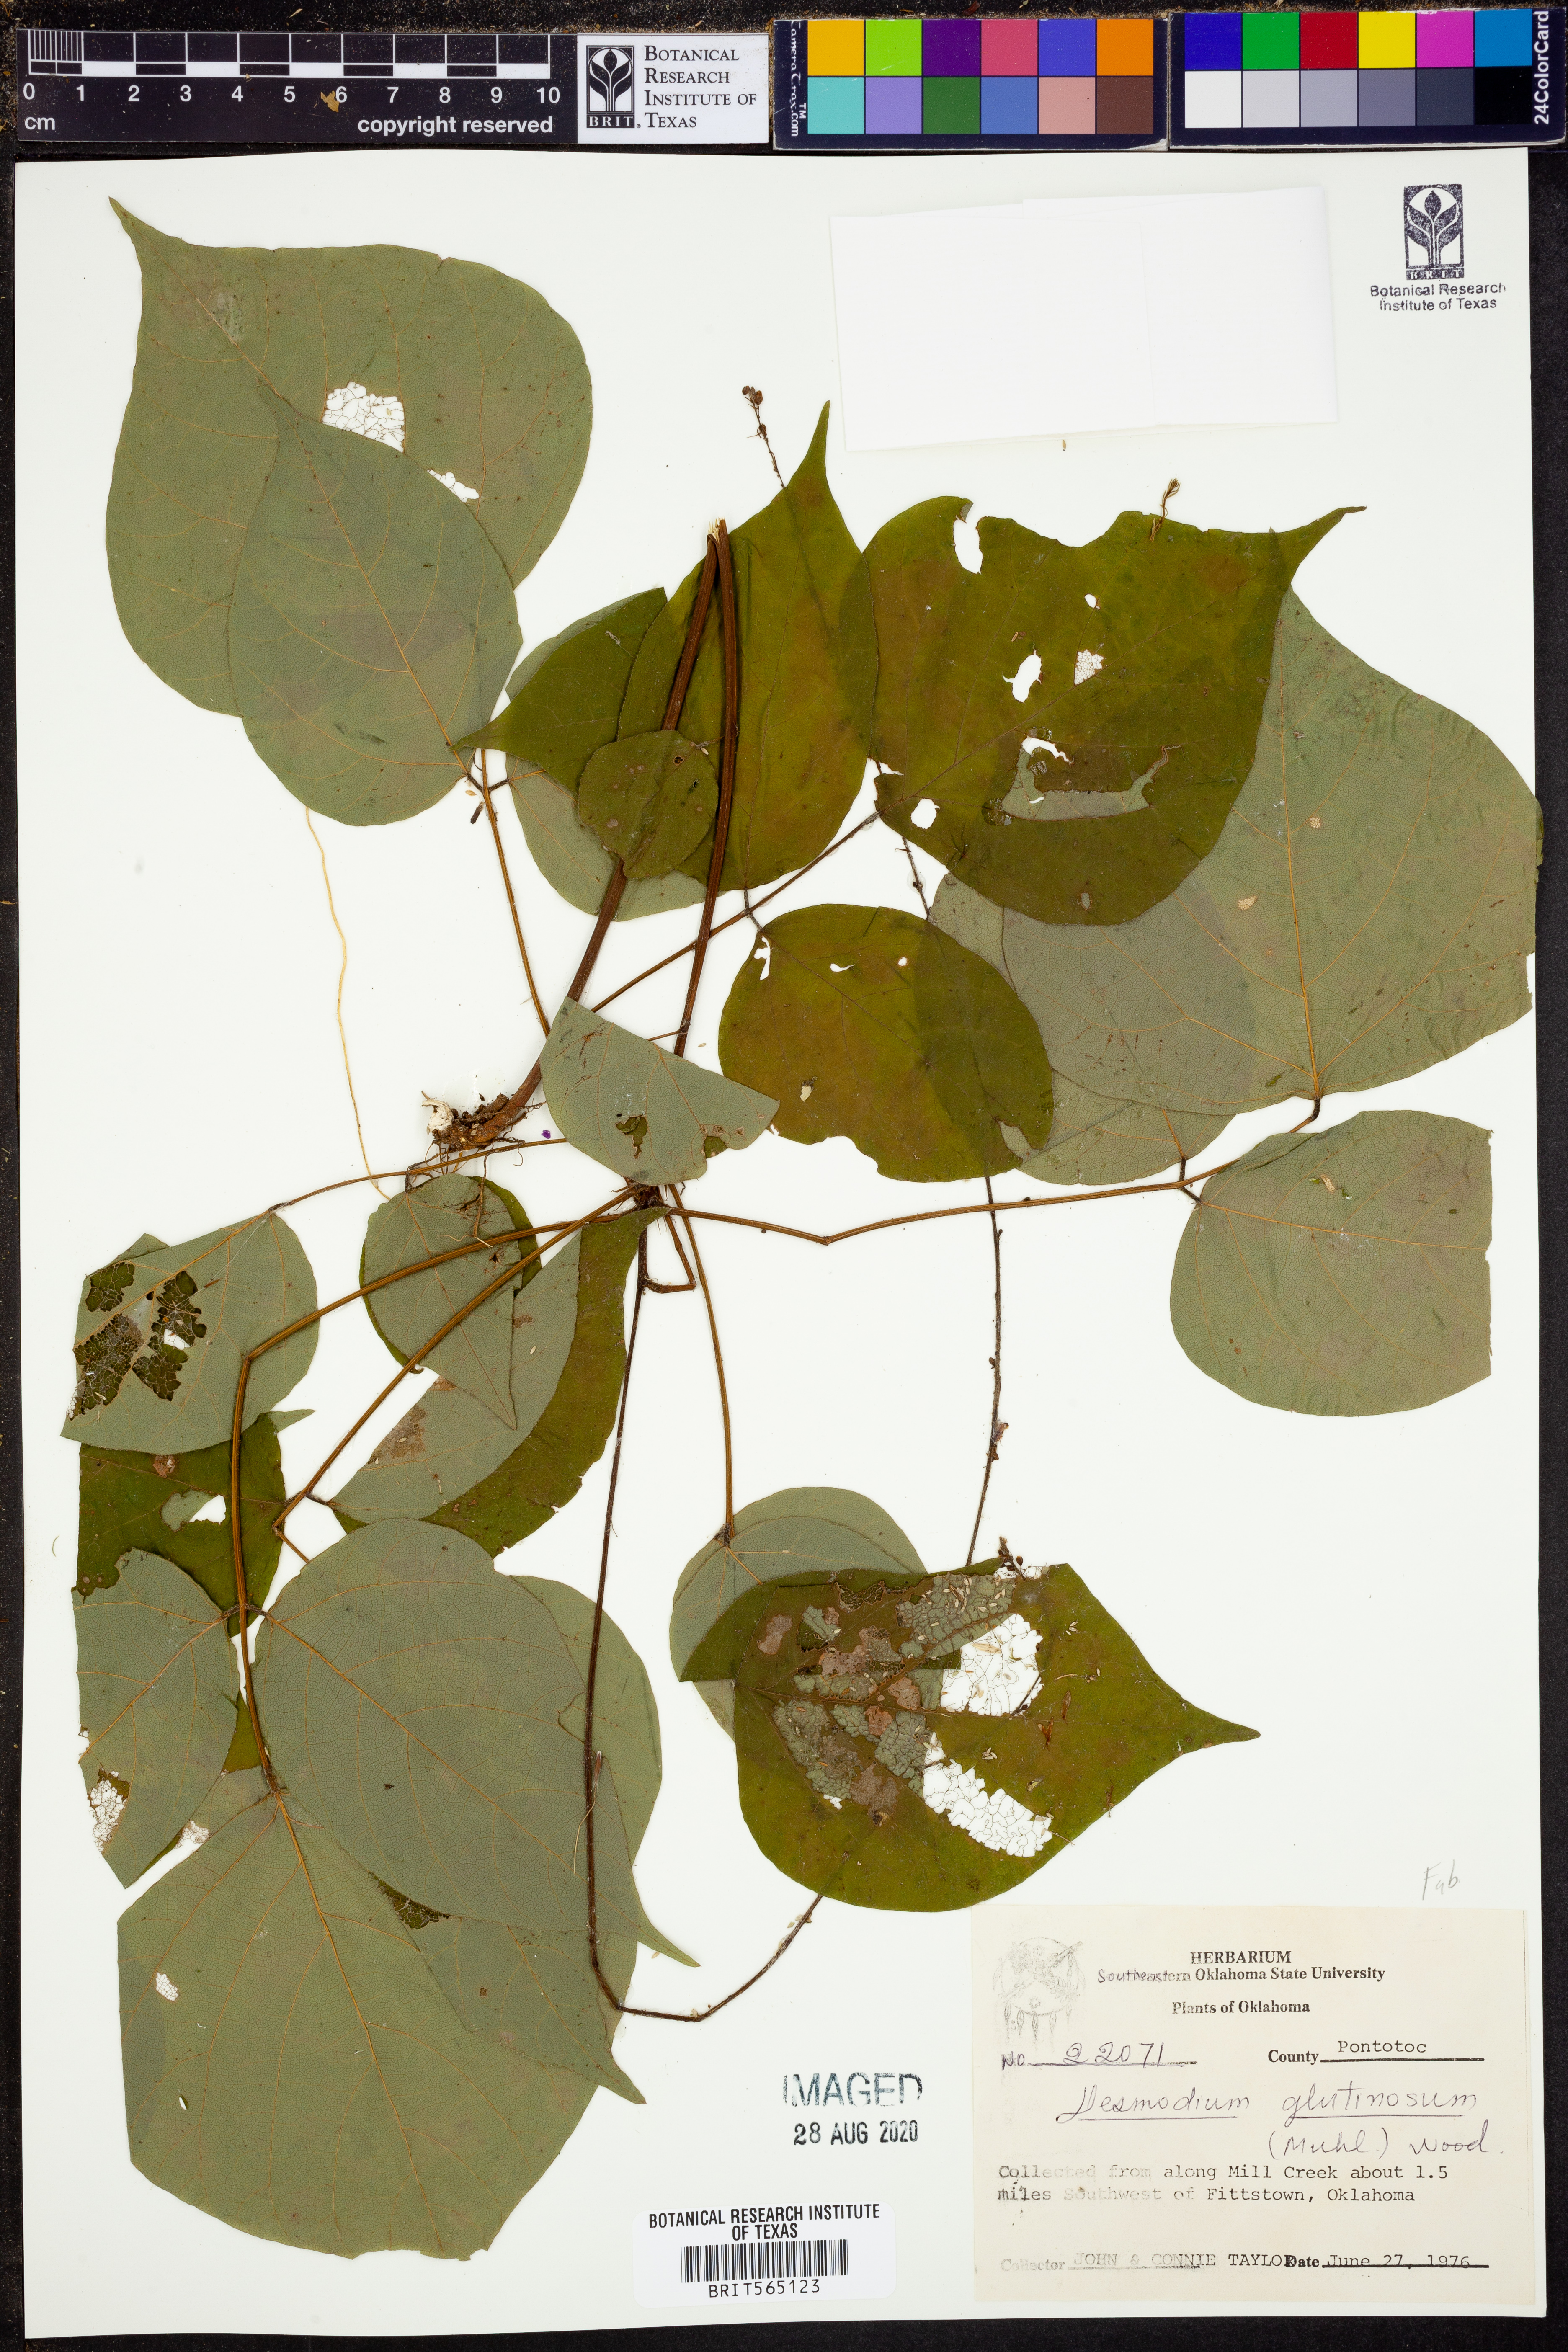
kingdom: Plantae
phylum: Tracheophyta
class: Magnoliopsida
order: Fabales
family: Fabaceae
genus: Hylodesmum
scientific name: Hylodesmum glutinosum
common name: Clustered-leaved tick-trefoil
